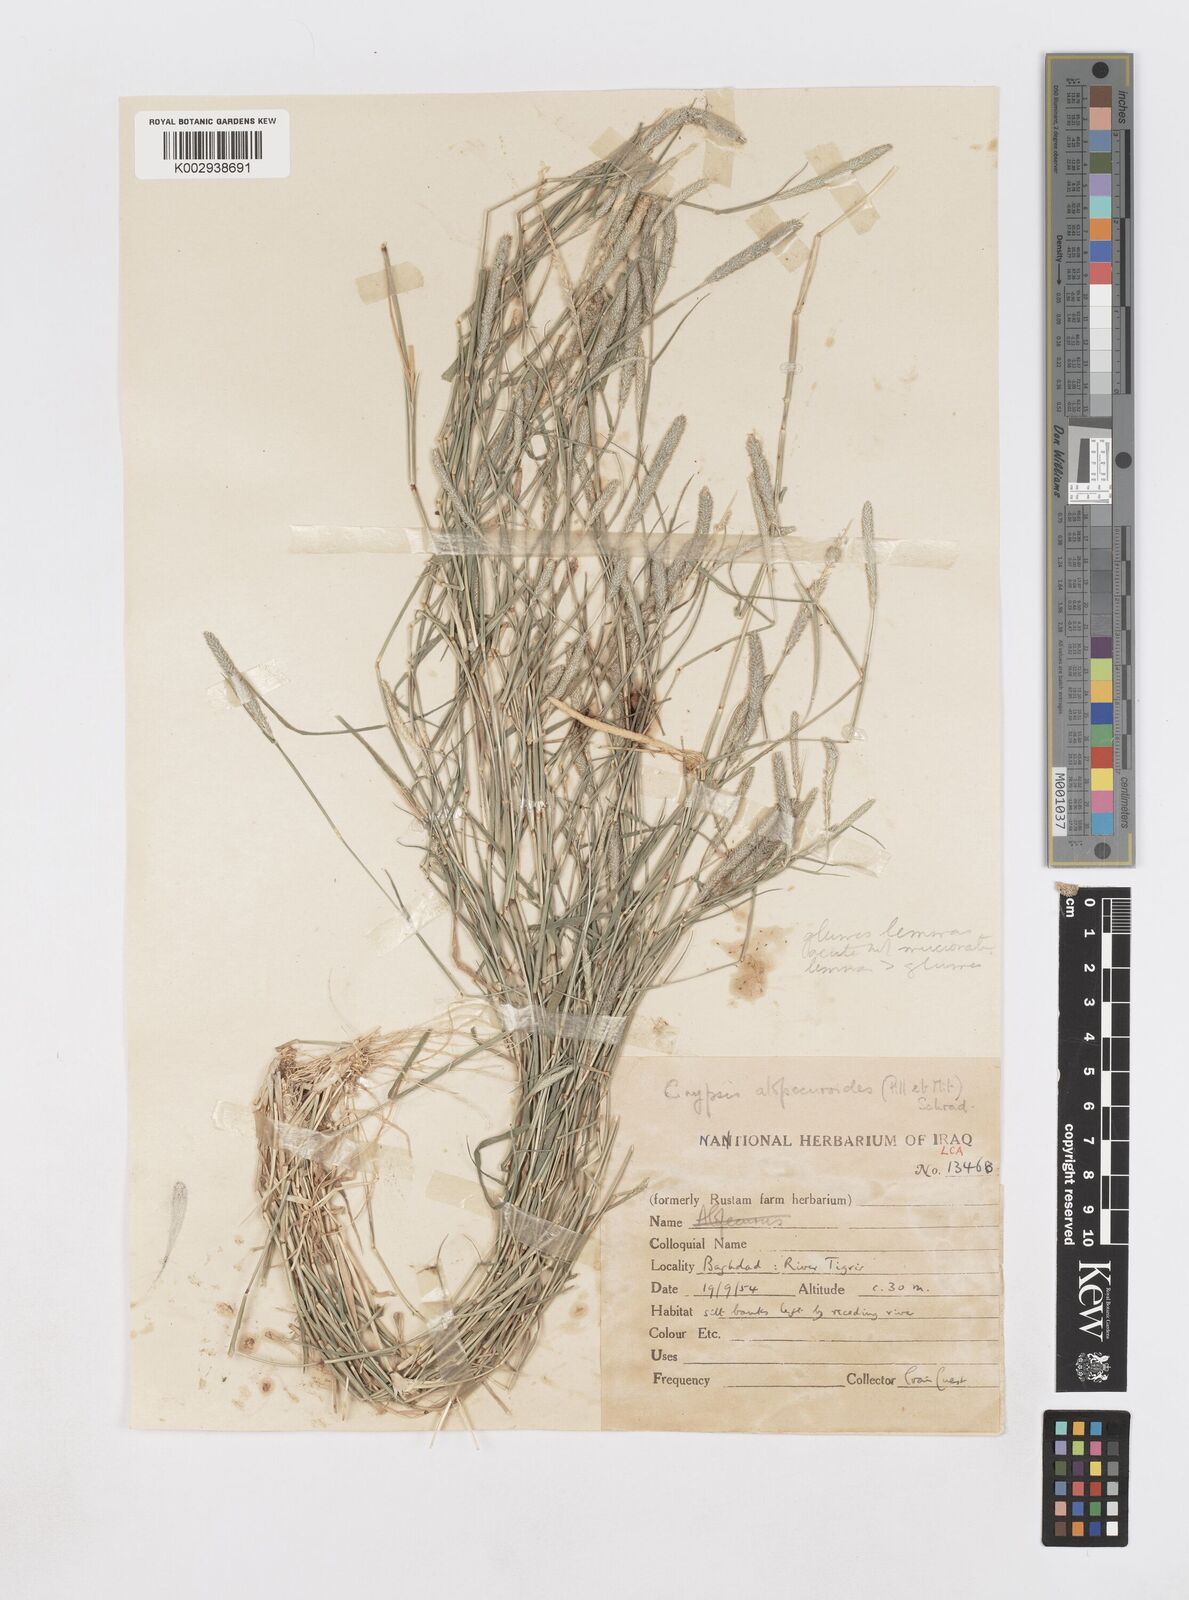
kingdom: Plantae
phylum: Tracheophyta
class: Liliopsida
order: Poales
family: Poaceae
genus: Sporobolus
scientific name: Sporobolus alopecuroides
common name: Foxtail pricklegrass
